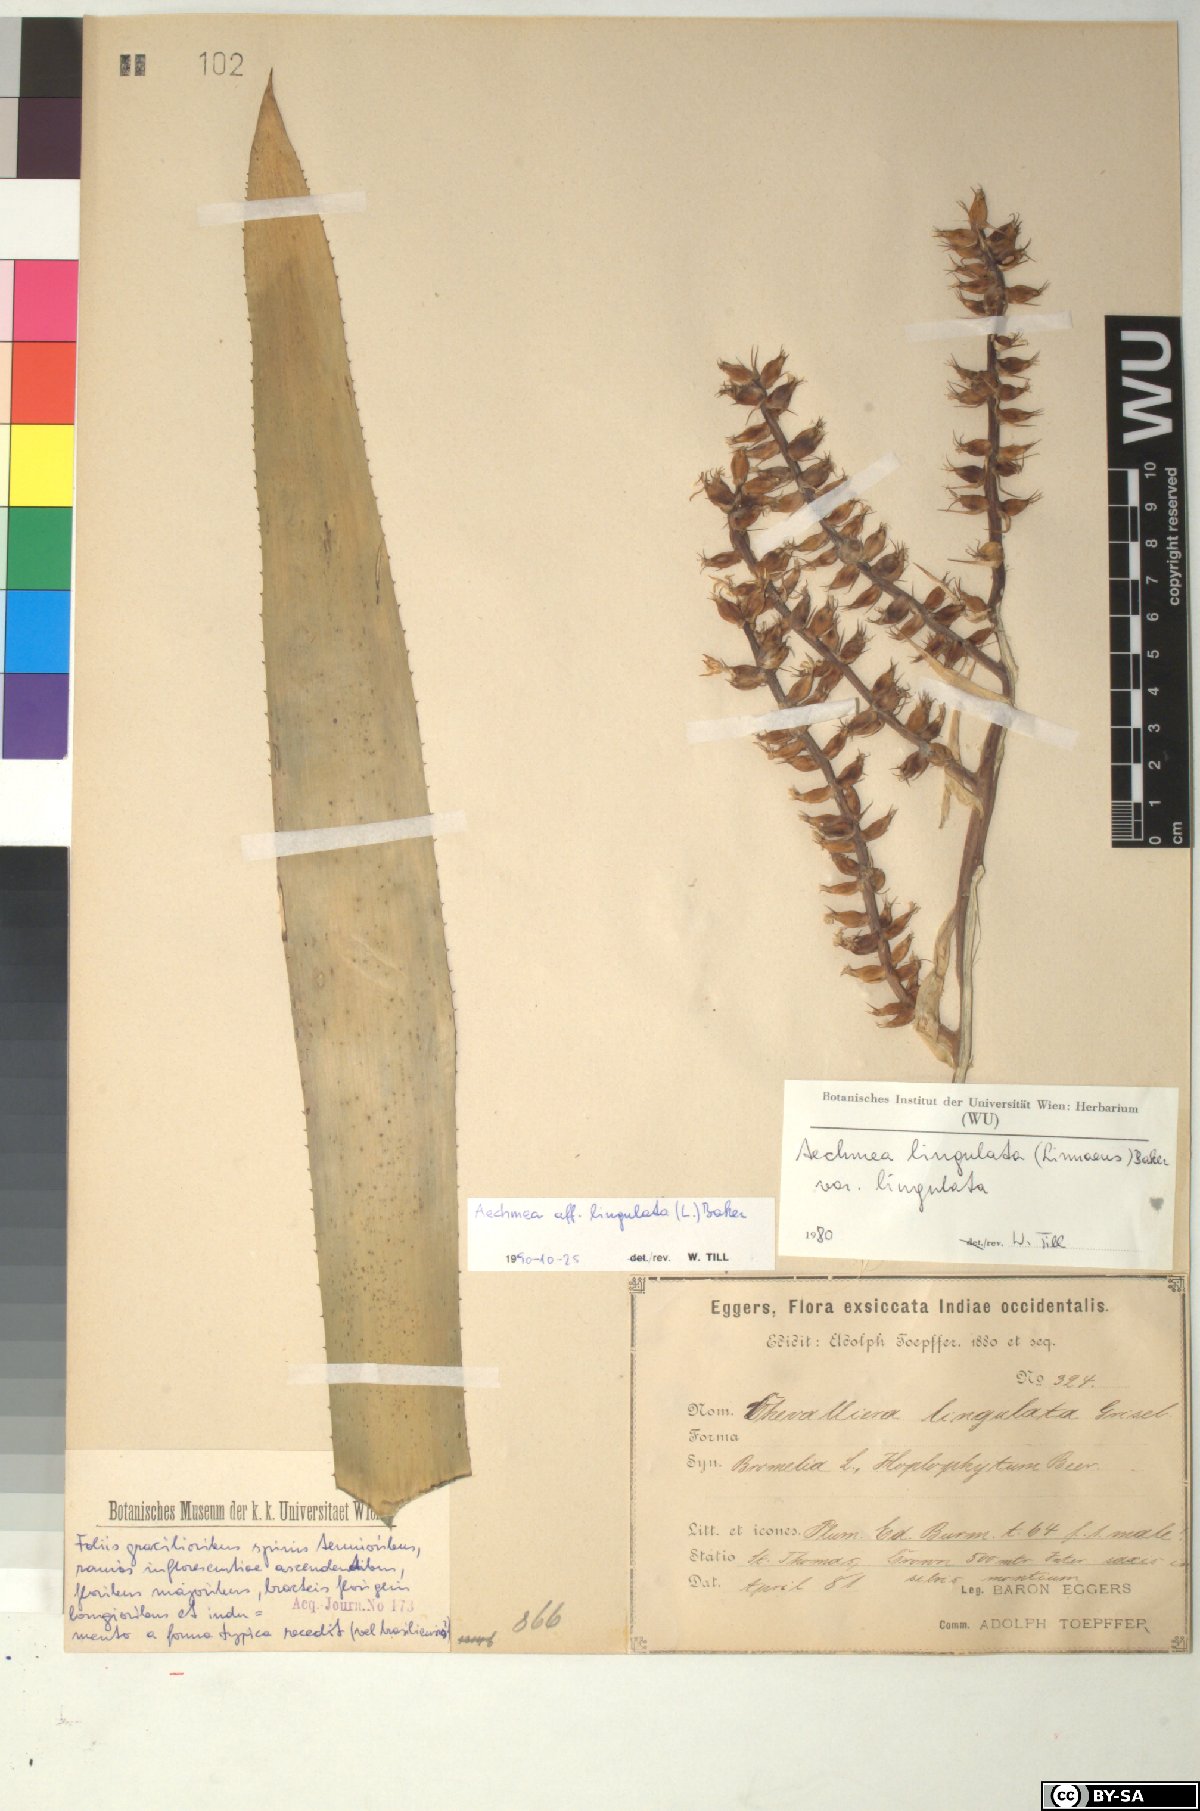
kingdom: Plantae
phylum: Tracheophyta
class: Liliopsida
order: Poales
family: Bromeliaceae
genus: Aechmea
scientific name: Aechmea
